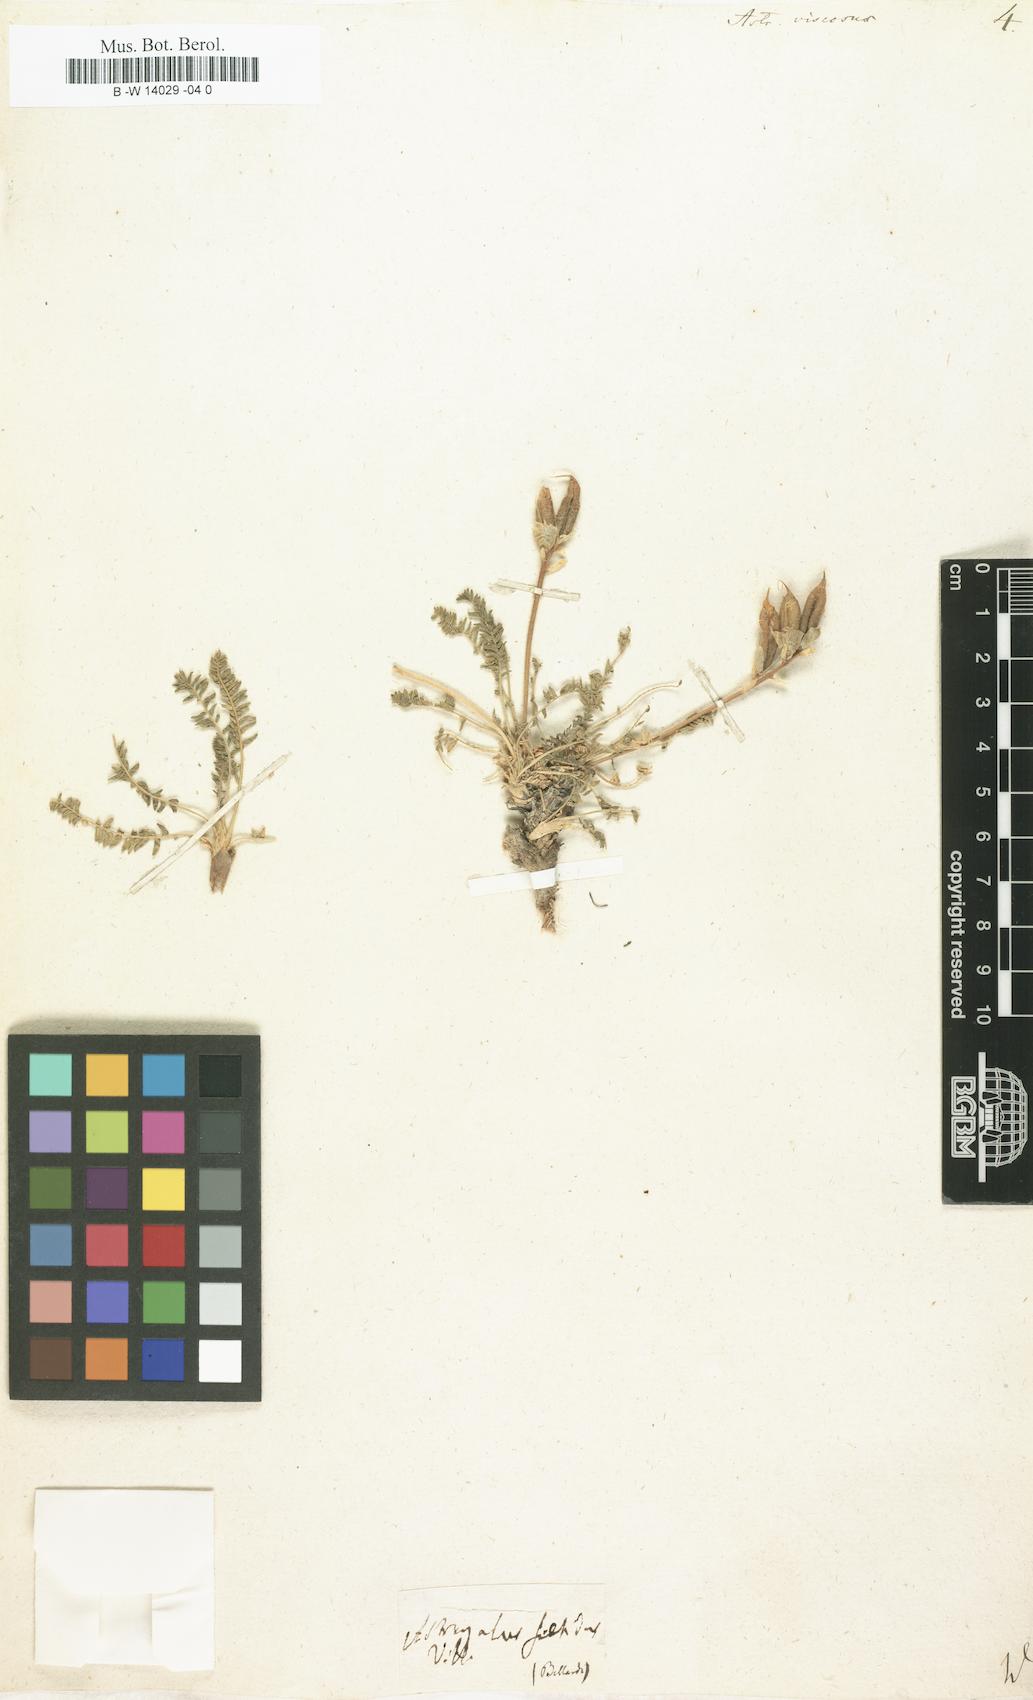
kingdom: Plantae
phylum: Tracheophyta
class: Magnoliopsida
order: Fabales
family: Fabaceae
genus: Oxytropis
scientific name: Oxytropis fetida
